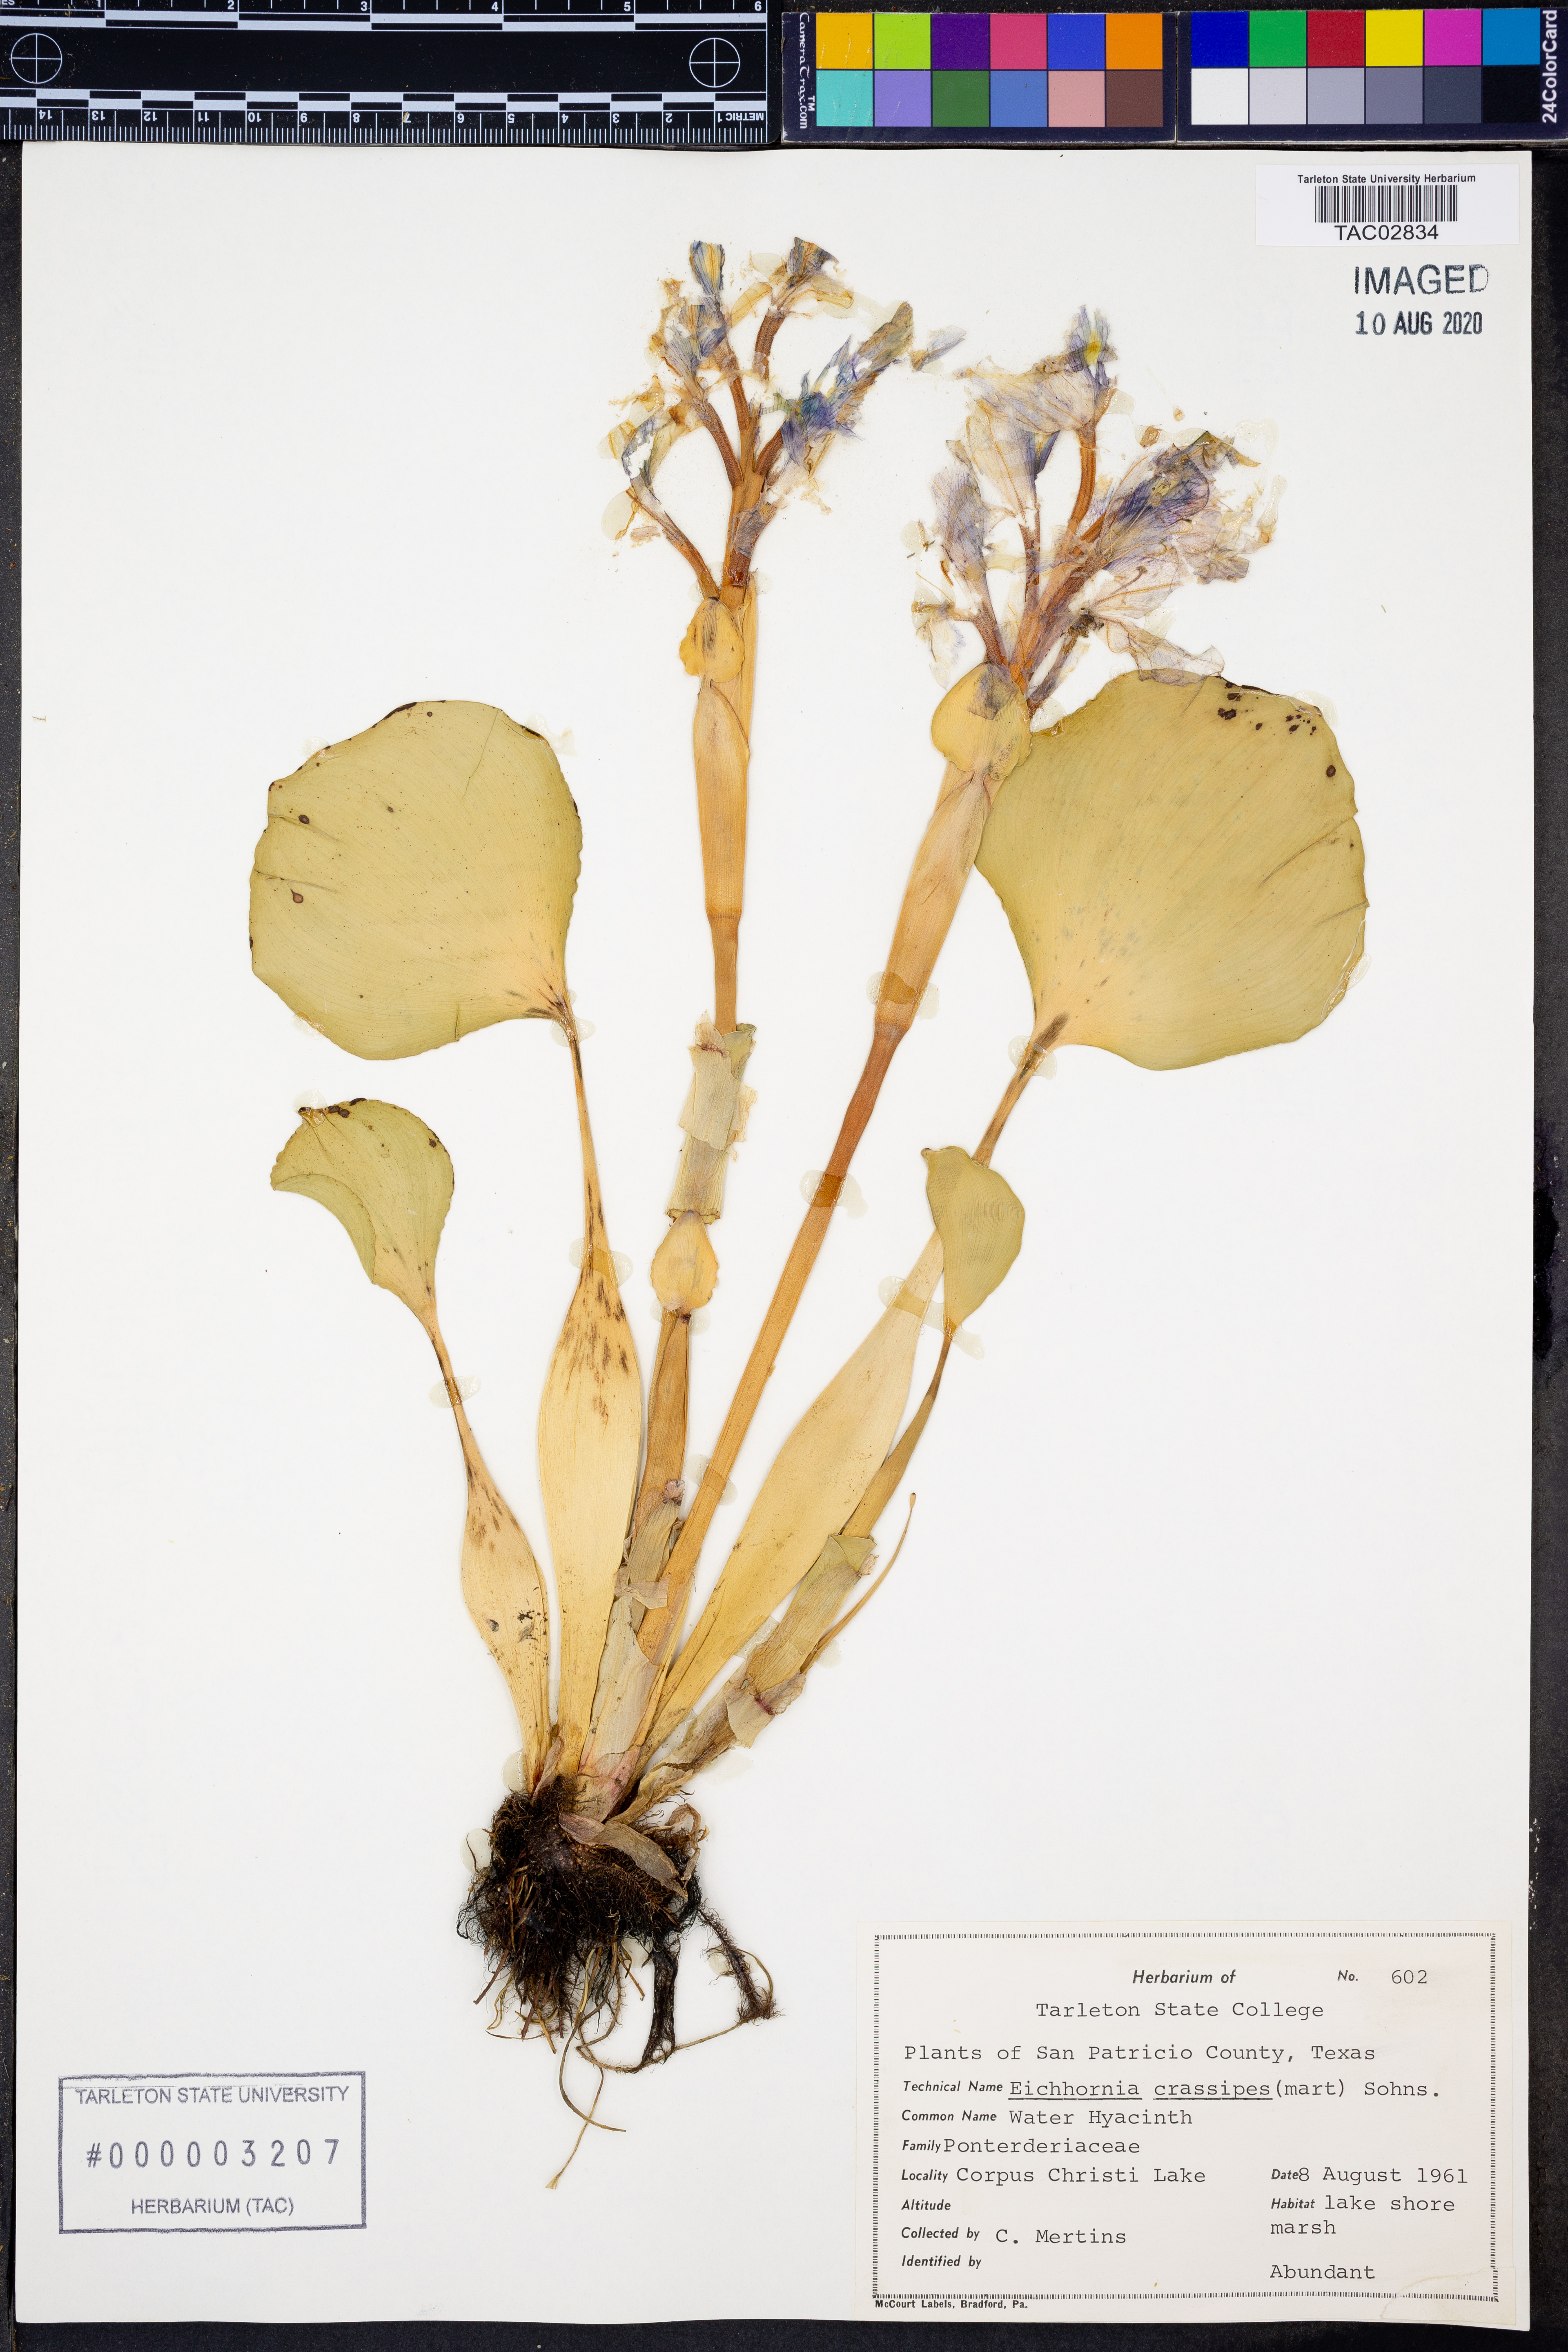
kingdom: Plantae
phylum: Tracheophyta
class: Liliopsida
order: Commelinales
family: Pontederiaceae
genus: Pontederia
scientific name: Pontederia crassipes
